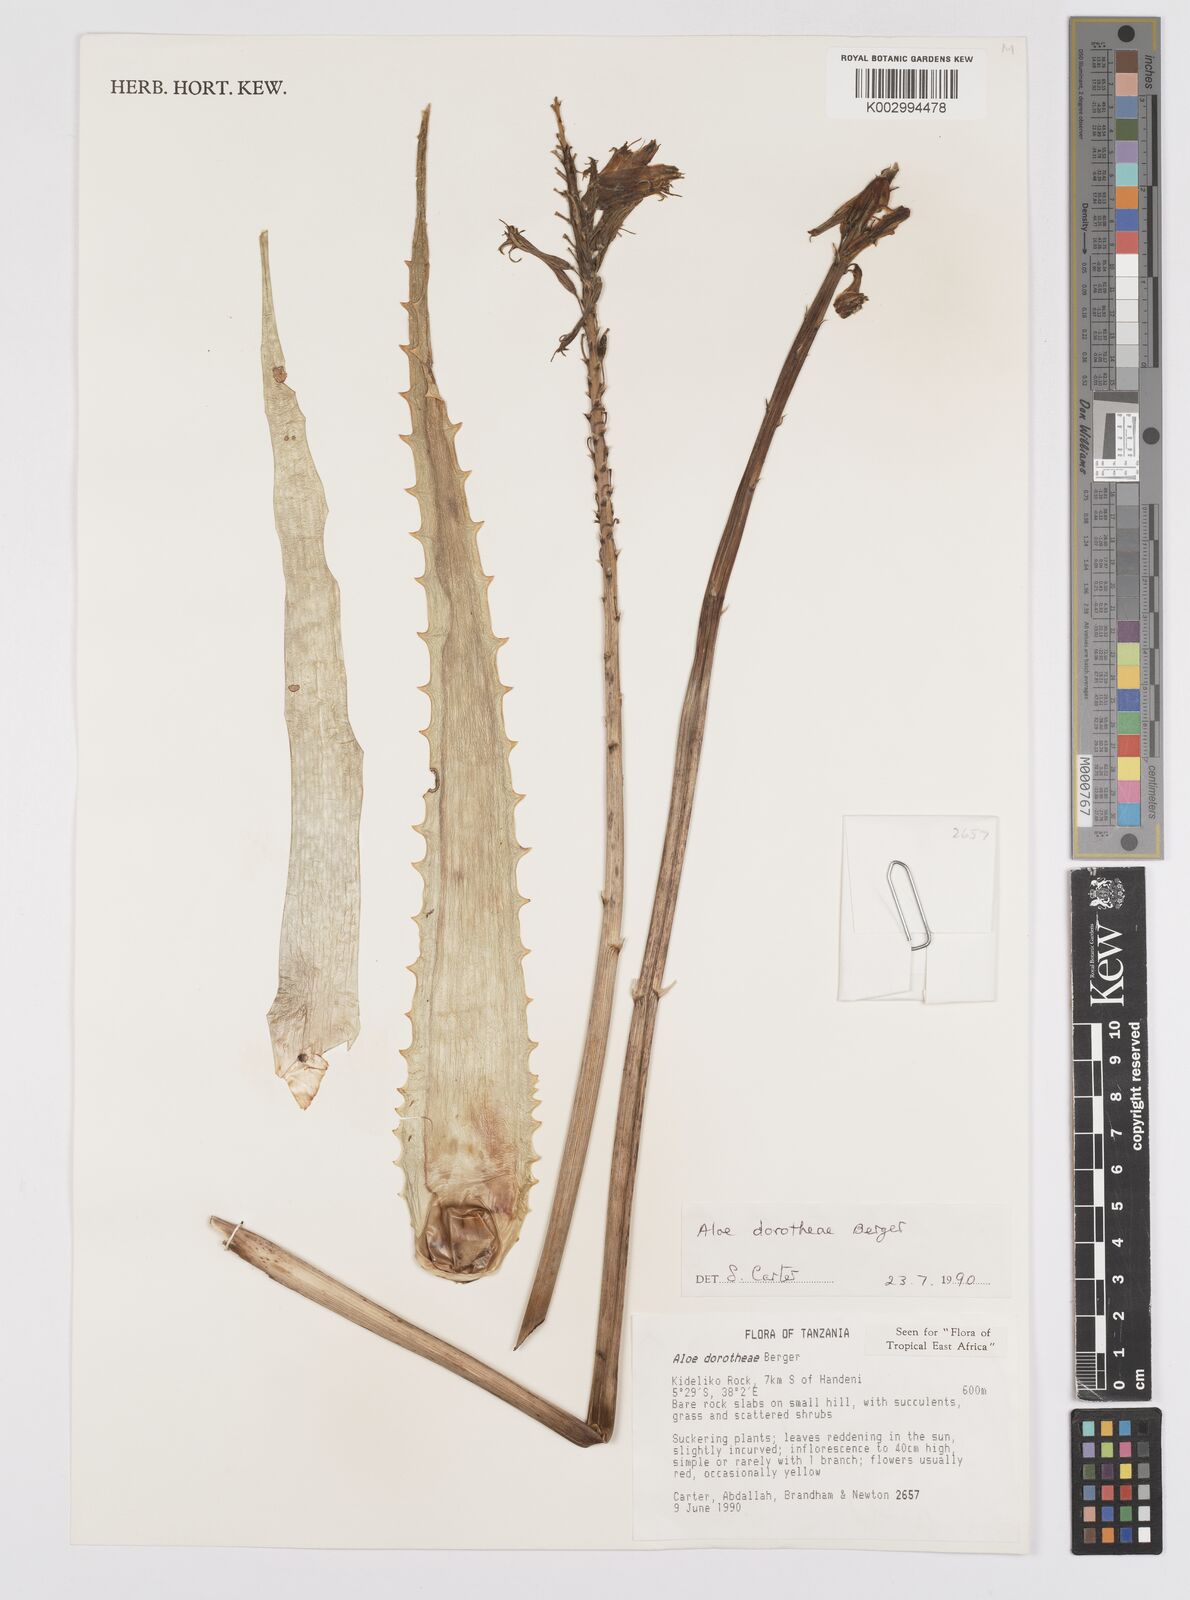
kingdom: Plantae
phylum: Tracheophyta
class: Liliopsida
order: Asparagales
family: Asphodelaceae
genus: Aloe
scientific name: Aloe dorotheae
